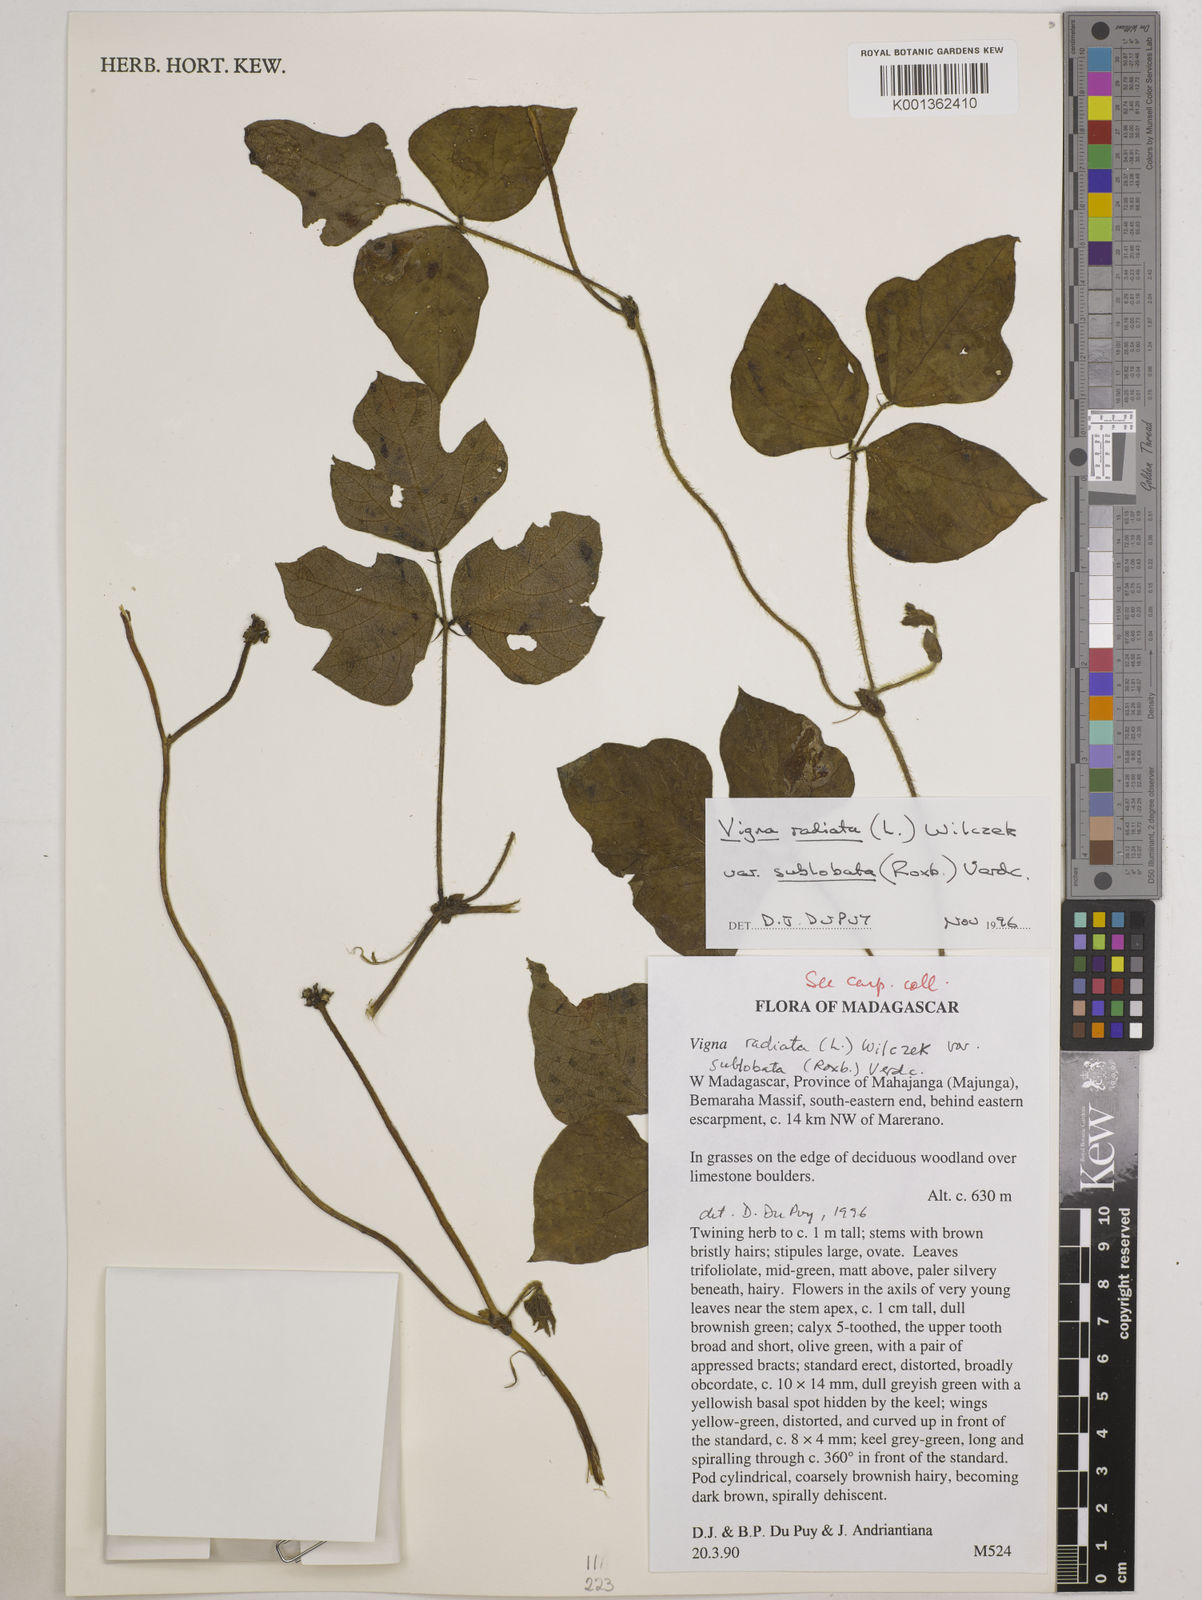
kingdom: Plantae
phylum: Tracheophyta
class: Magnoliopsida
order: Fabales
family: Fabaceae
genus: Vigna
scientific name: Vigna radiata
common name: Mung-bean
